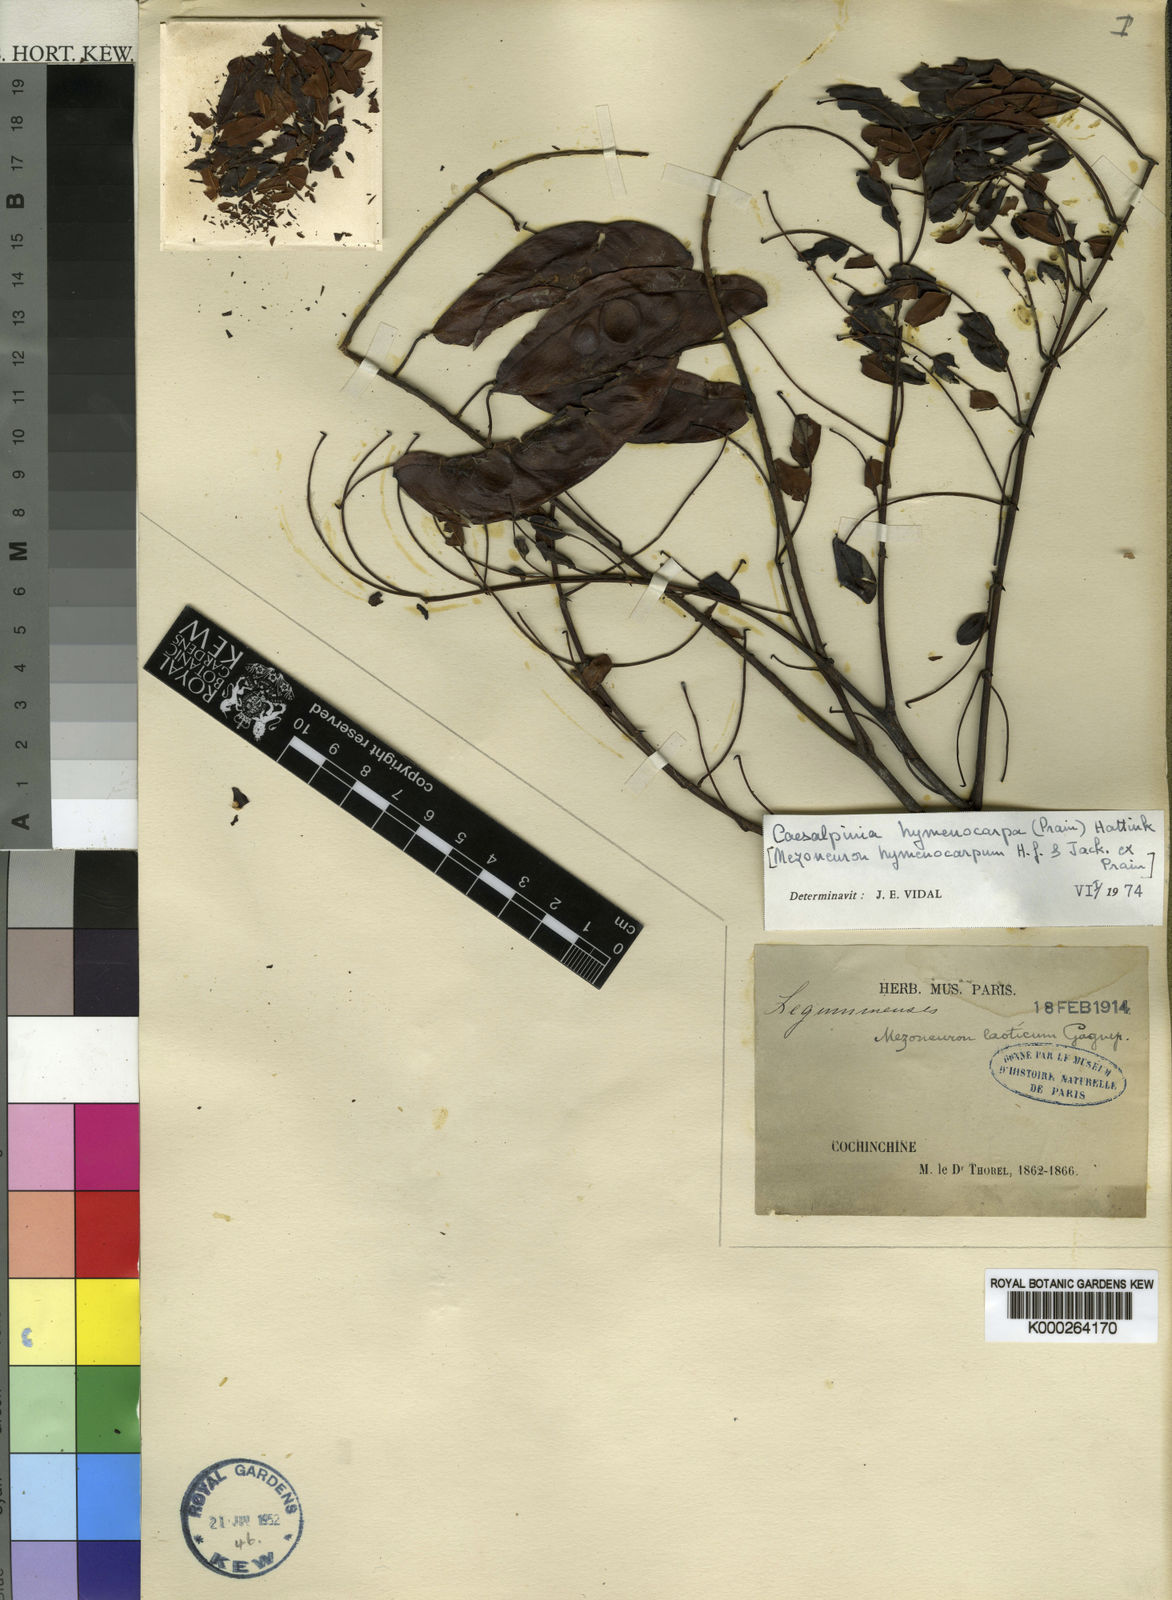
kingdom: Plantae
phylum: Tracheophyta
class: Magnoliopsida
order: Fabales
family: Fabaceae
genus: Caesalpinia
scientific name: Caesalpinia
